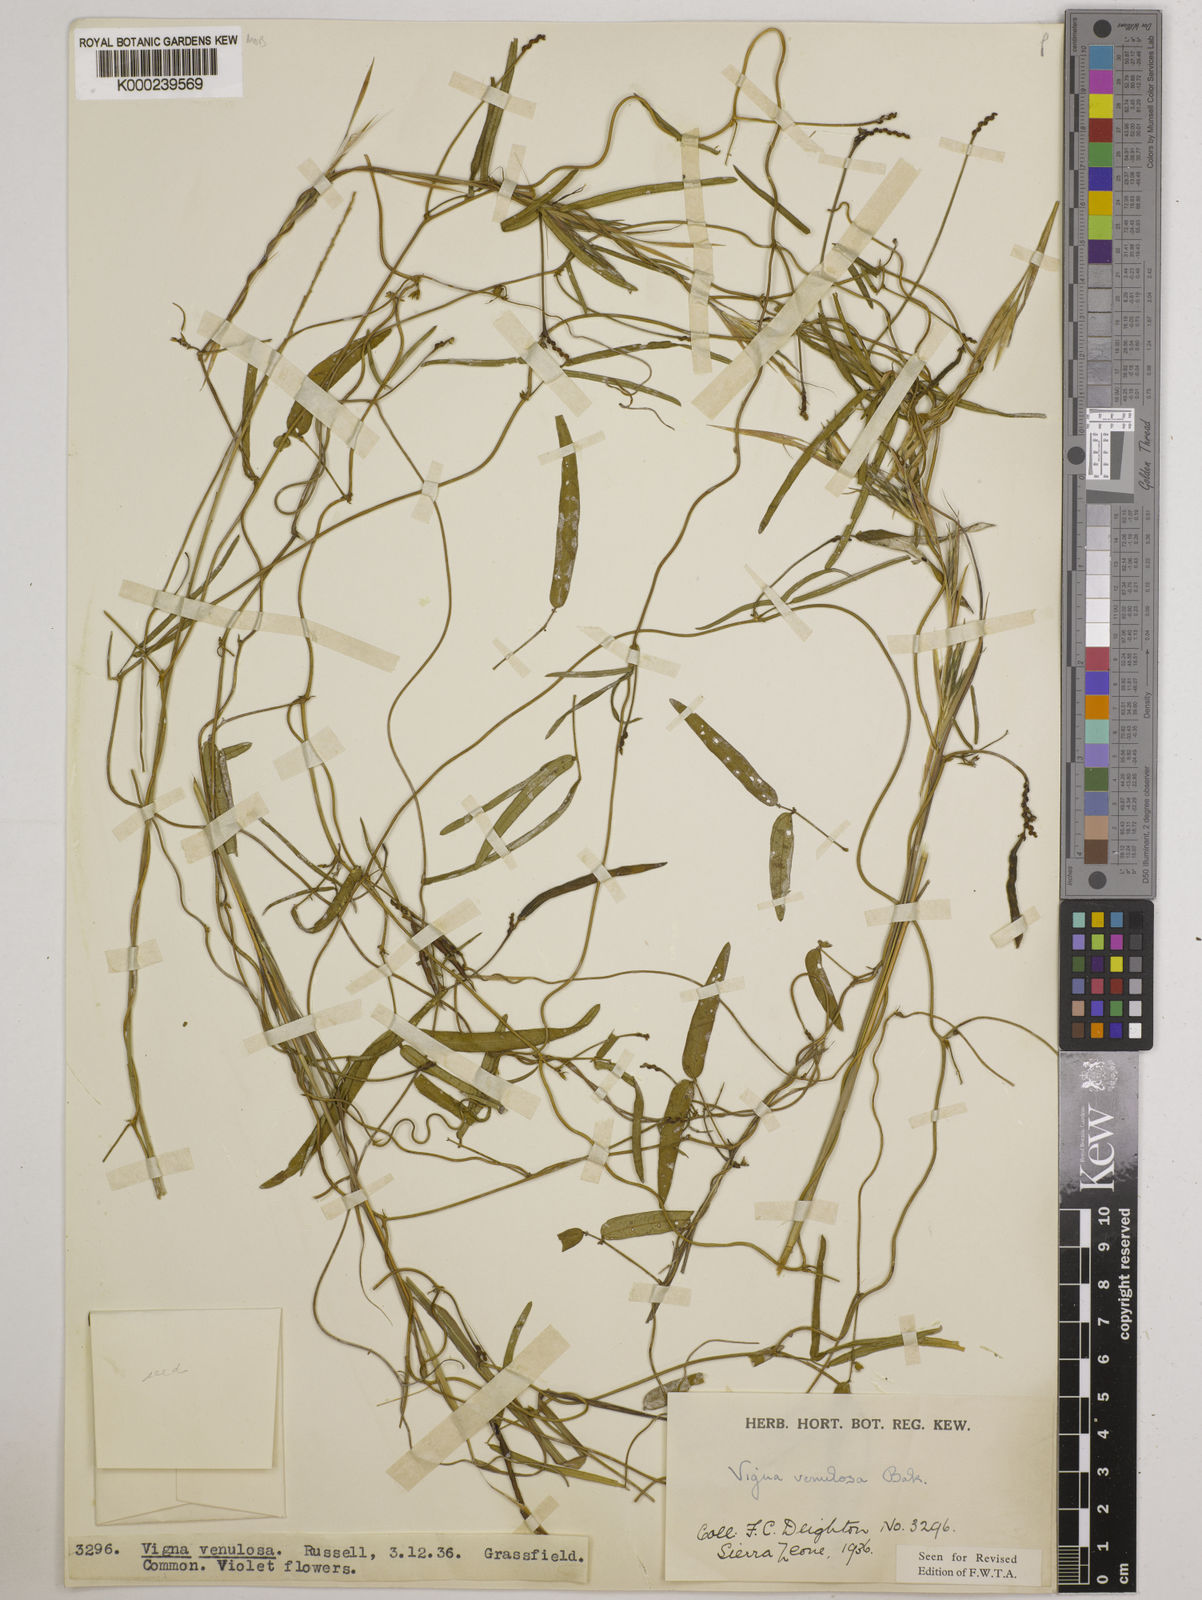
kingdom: Plantae
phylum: Tracheophyta
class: Magnoliopsida
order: Fabales
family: Fabaceae
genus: Vigna
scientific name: Vigna venulosa
